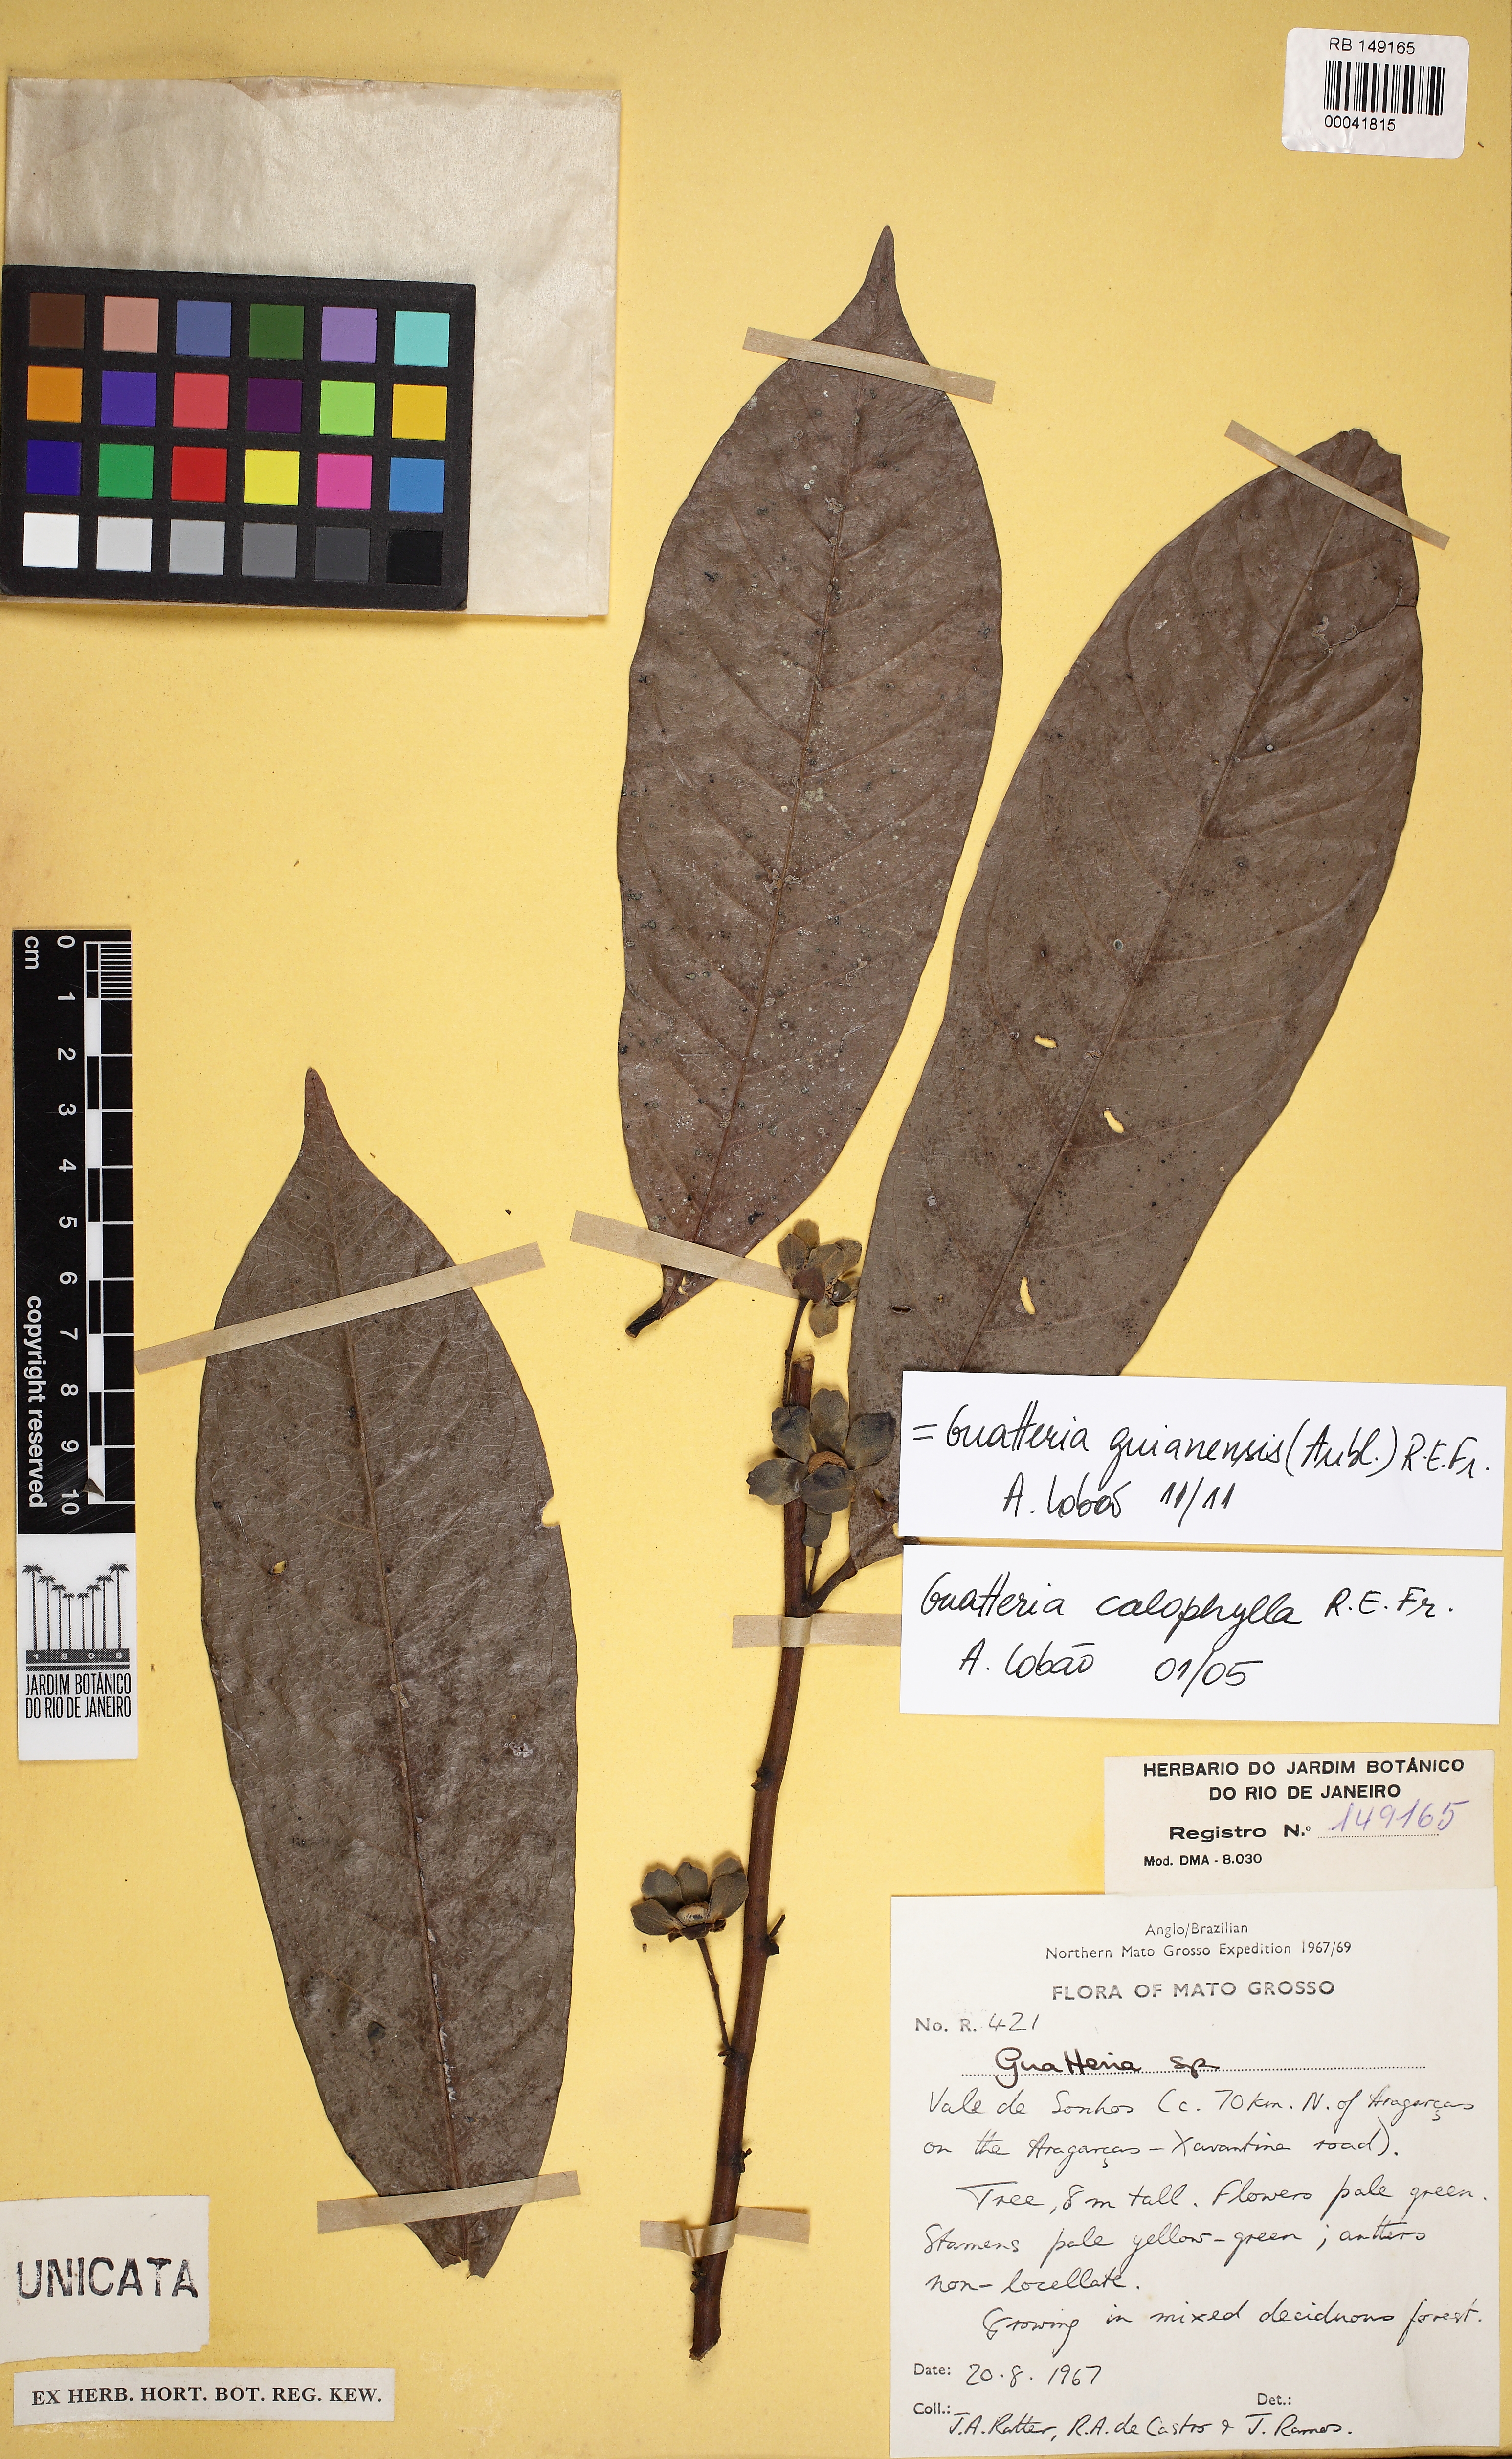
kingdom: Plantae
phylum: Tracheophyta
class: Magnoliopsida
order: Magnoliales
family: Annonaceae
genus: Guatteria
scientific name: Guatteria guianensis
